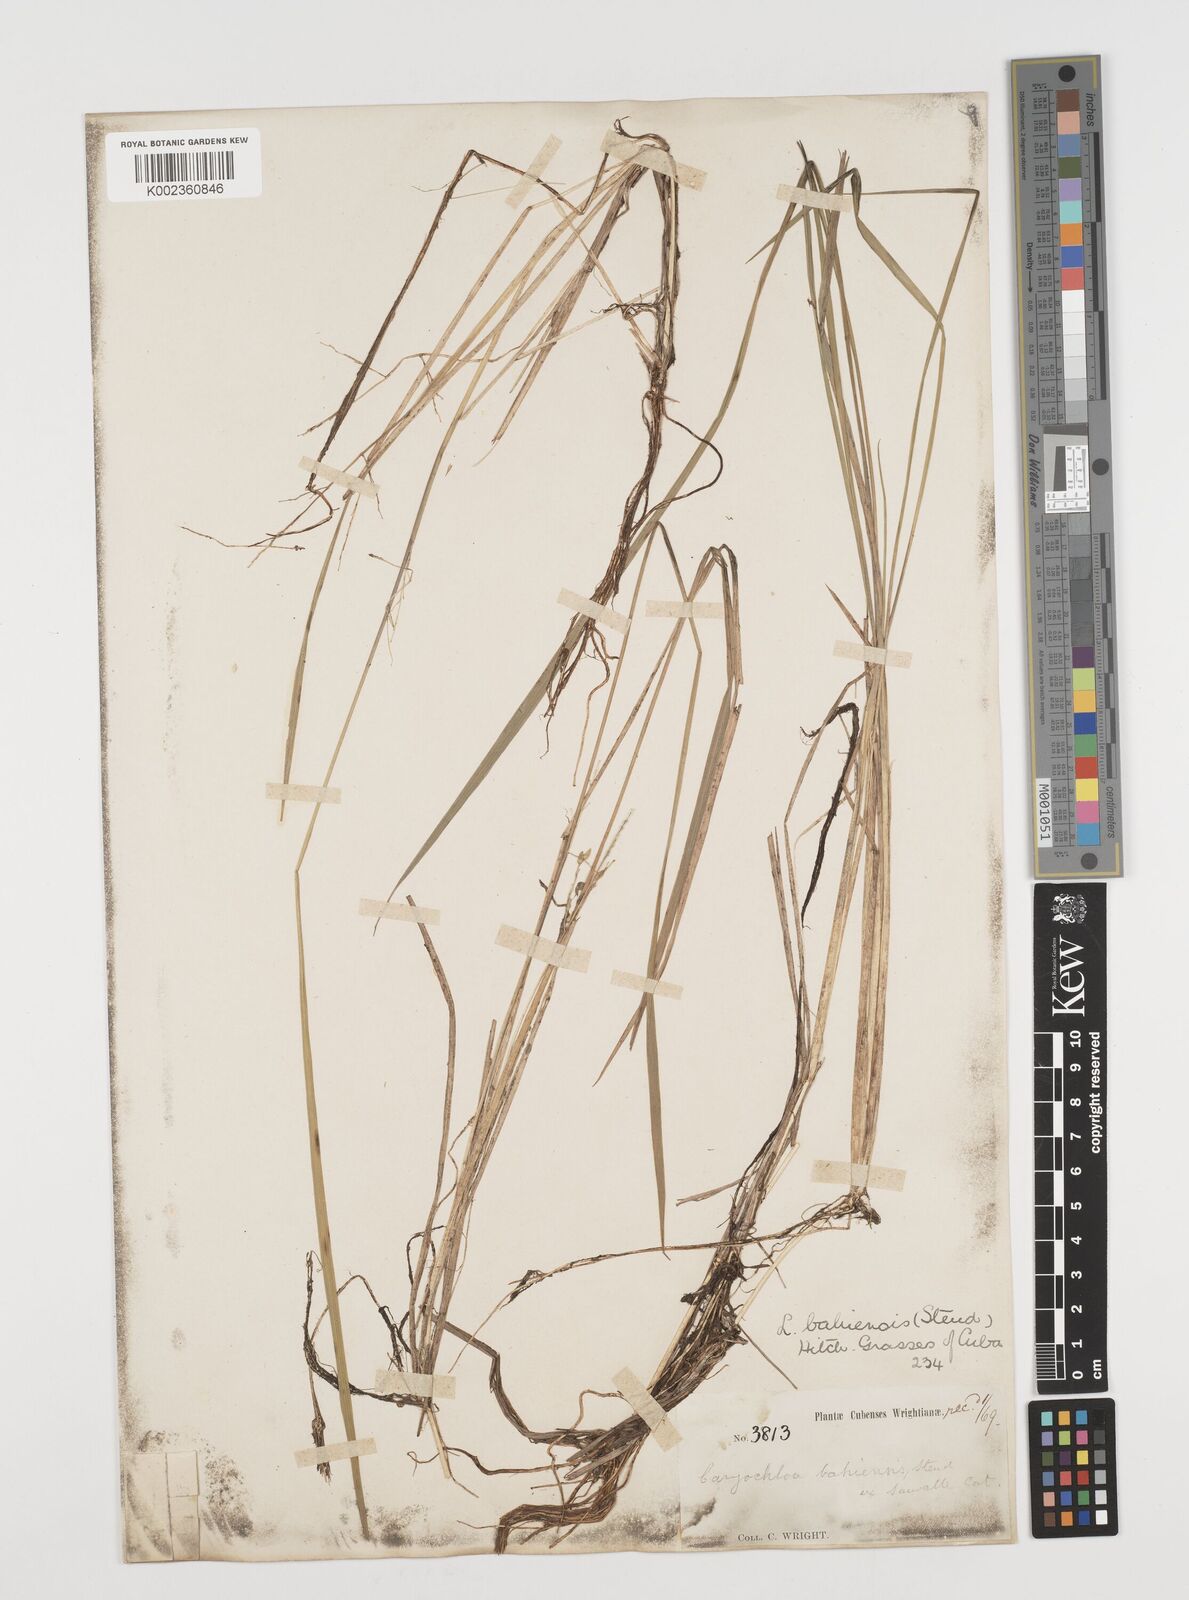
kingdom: Plantae
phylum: Tracheophyta
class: Liliopsida
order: Poales
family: Poaceae
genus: Luziola
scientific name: Luziola bahiensis
